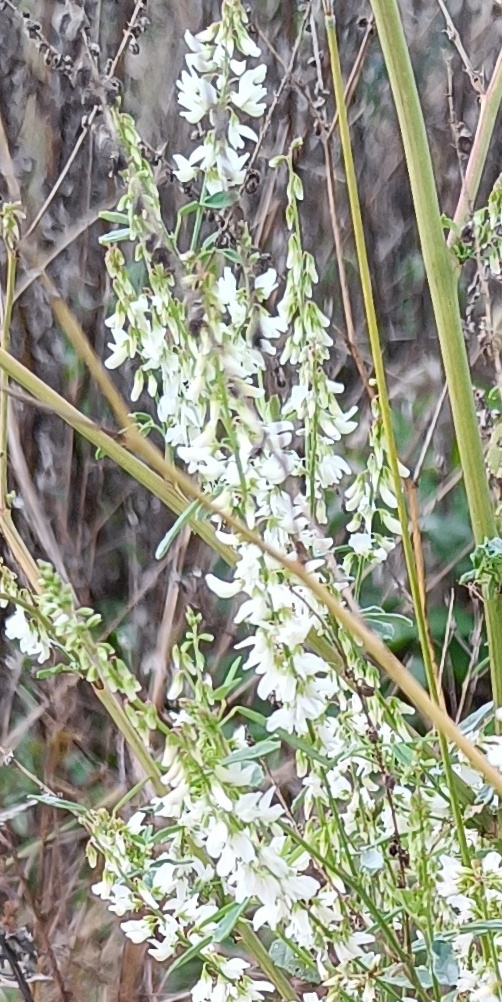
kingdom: Plantae
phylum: Tracheophyta
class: Magnoliopsida
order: Fabales
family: Fabaceae
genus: Melilotus
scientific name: Melilotus albus
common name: Hvid stenkløver
